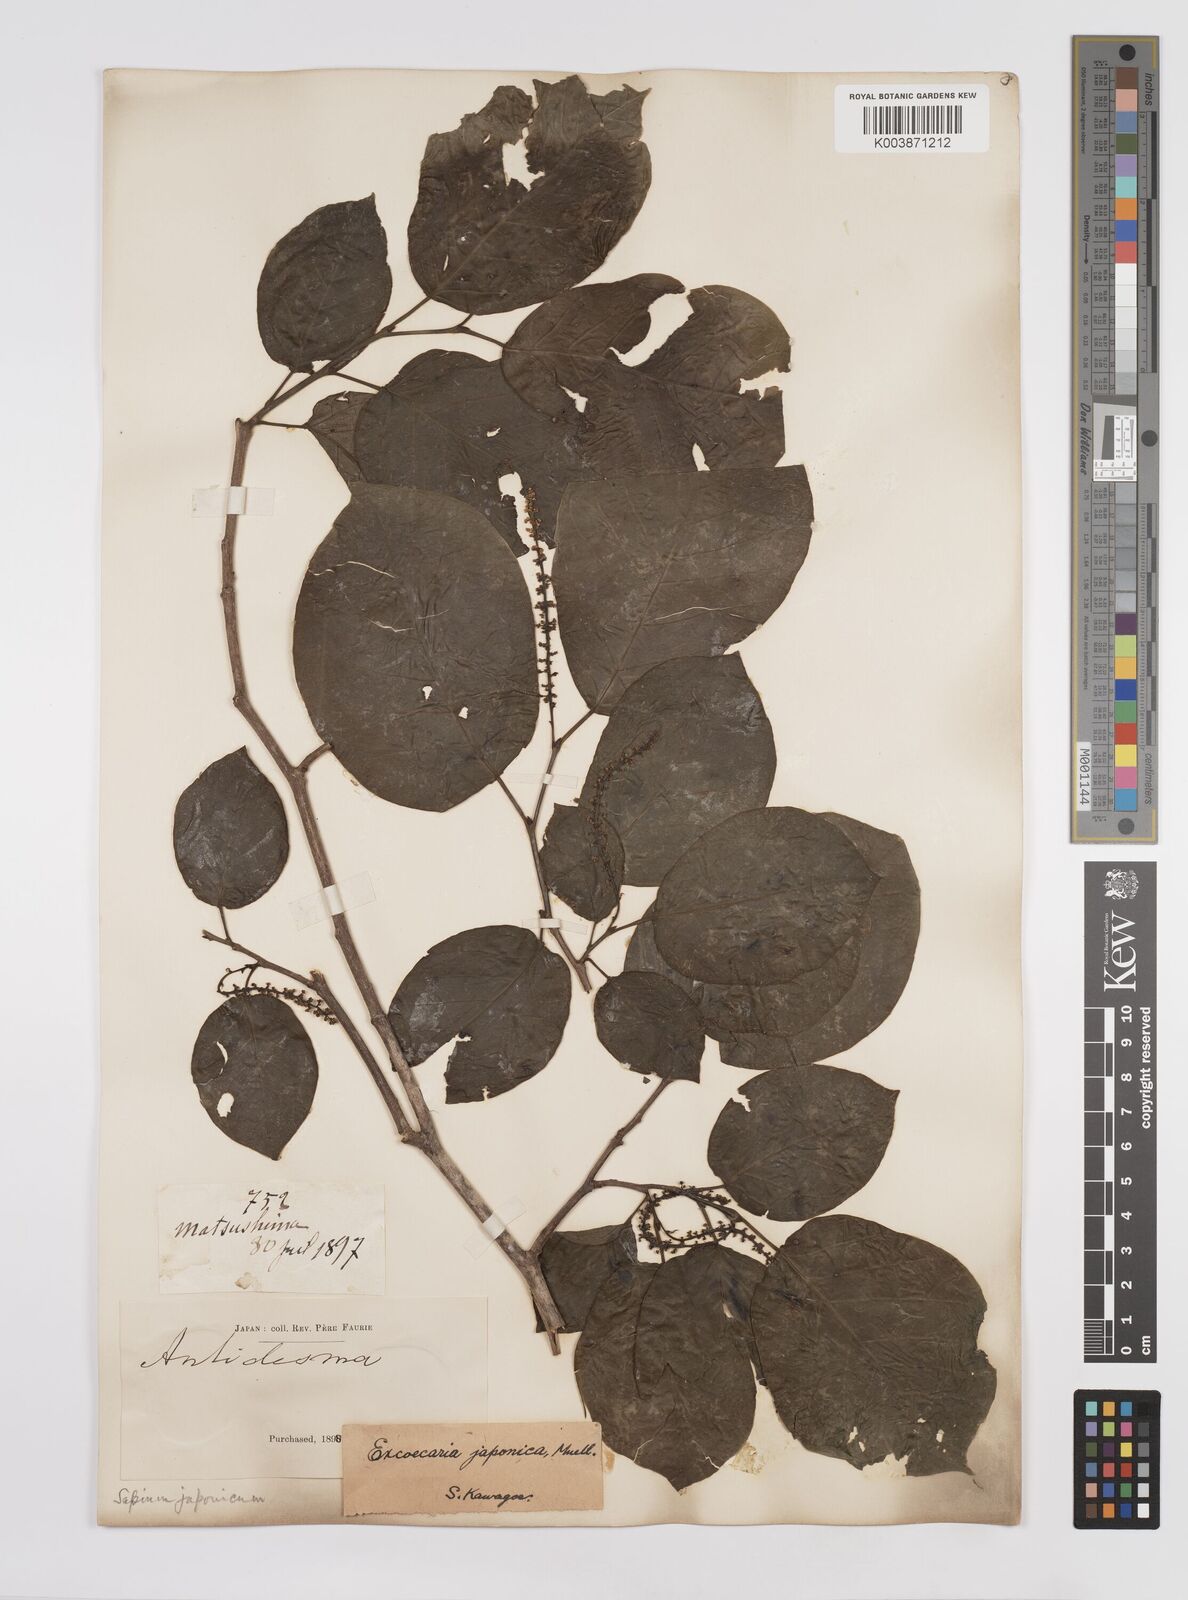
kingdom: Plantae
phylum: Tracheophyta
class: Magnoliopsida
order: Malpighiales
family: Euphorbiaceae
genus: Neoshirakia
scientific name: Neoshirakia japonica
